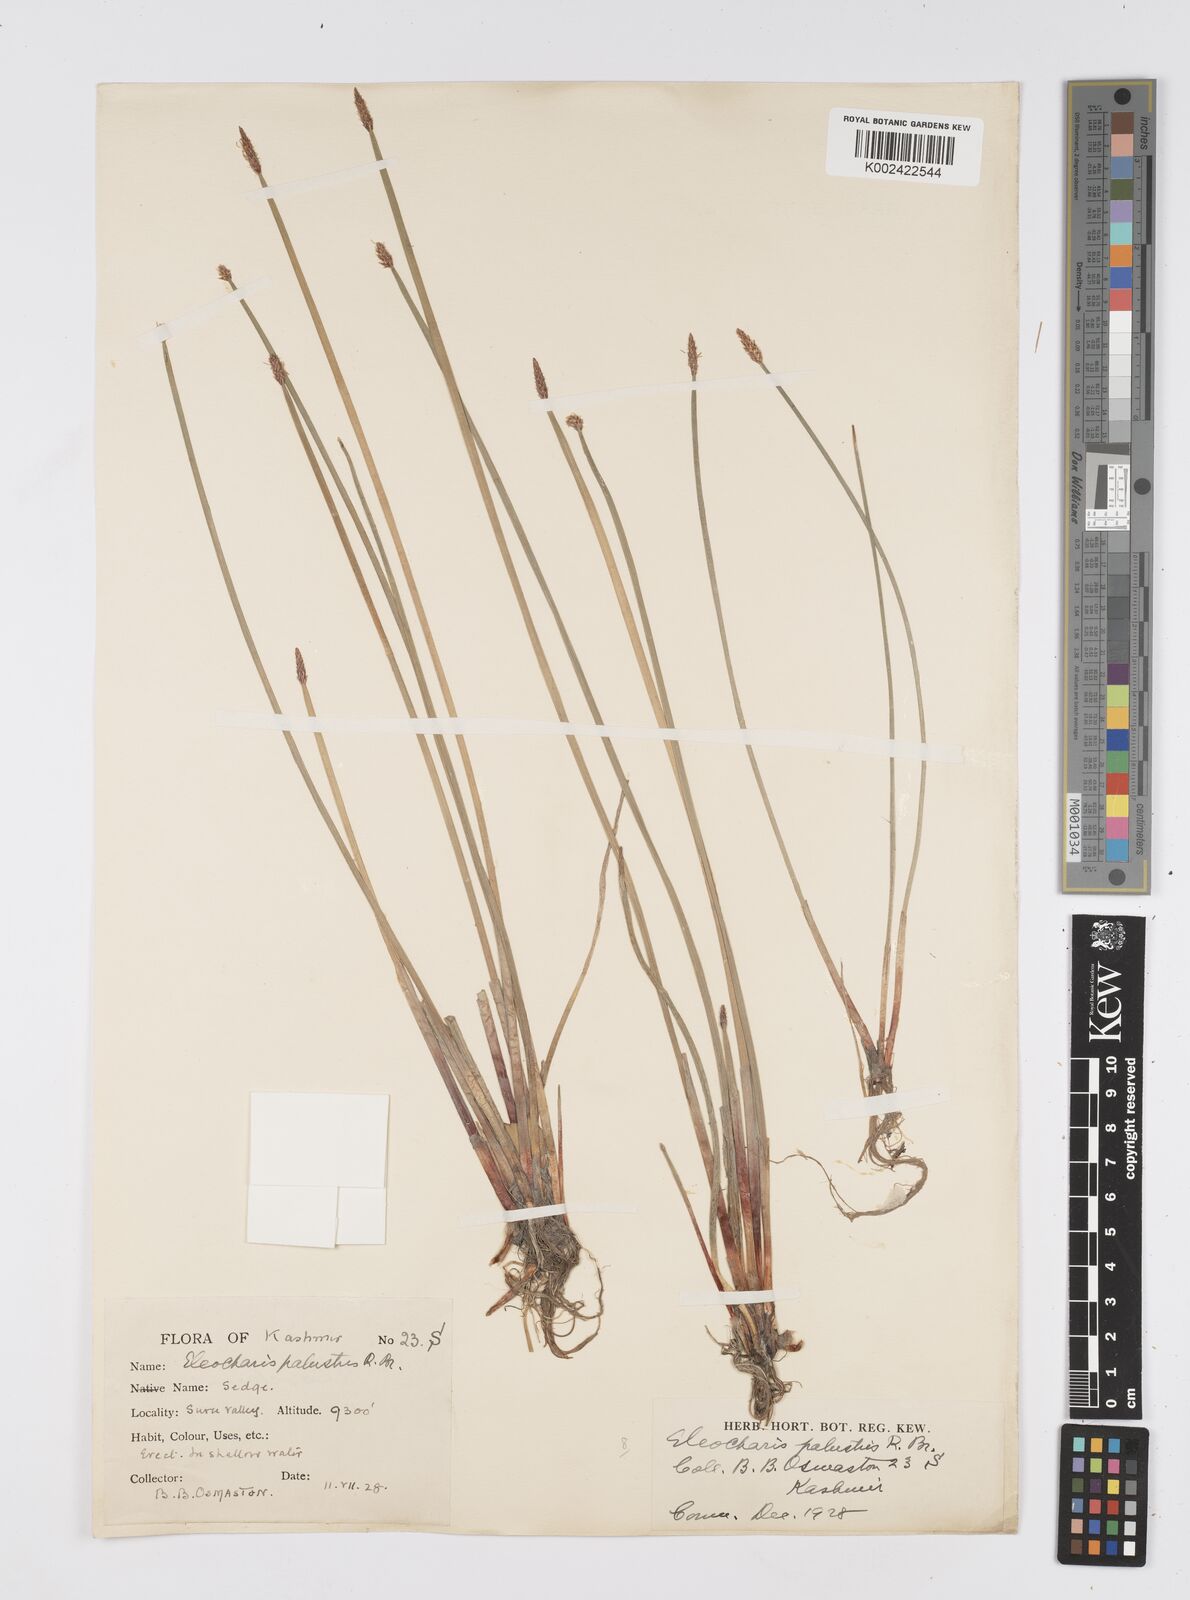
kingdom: Plantae
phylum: Tracheophyta
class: Liliopsida
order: Poales
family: Cyperaceae
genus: Eleocharis
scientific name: Eleocharis palustris
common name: Common spike-rush
